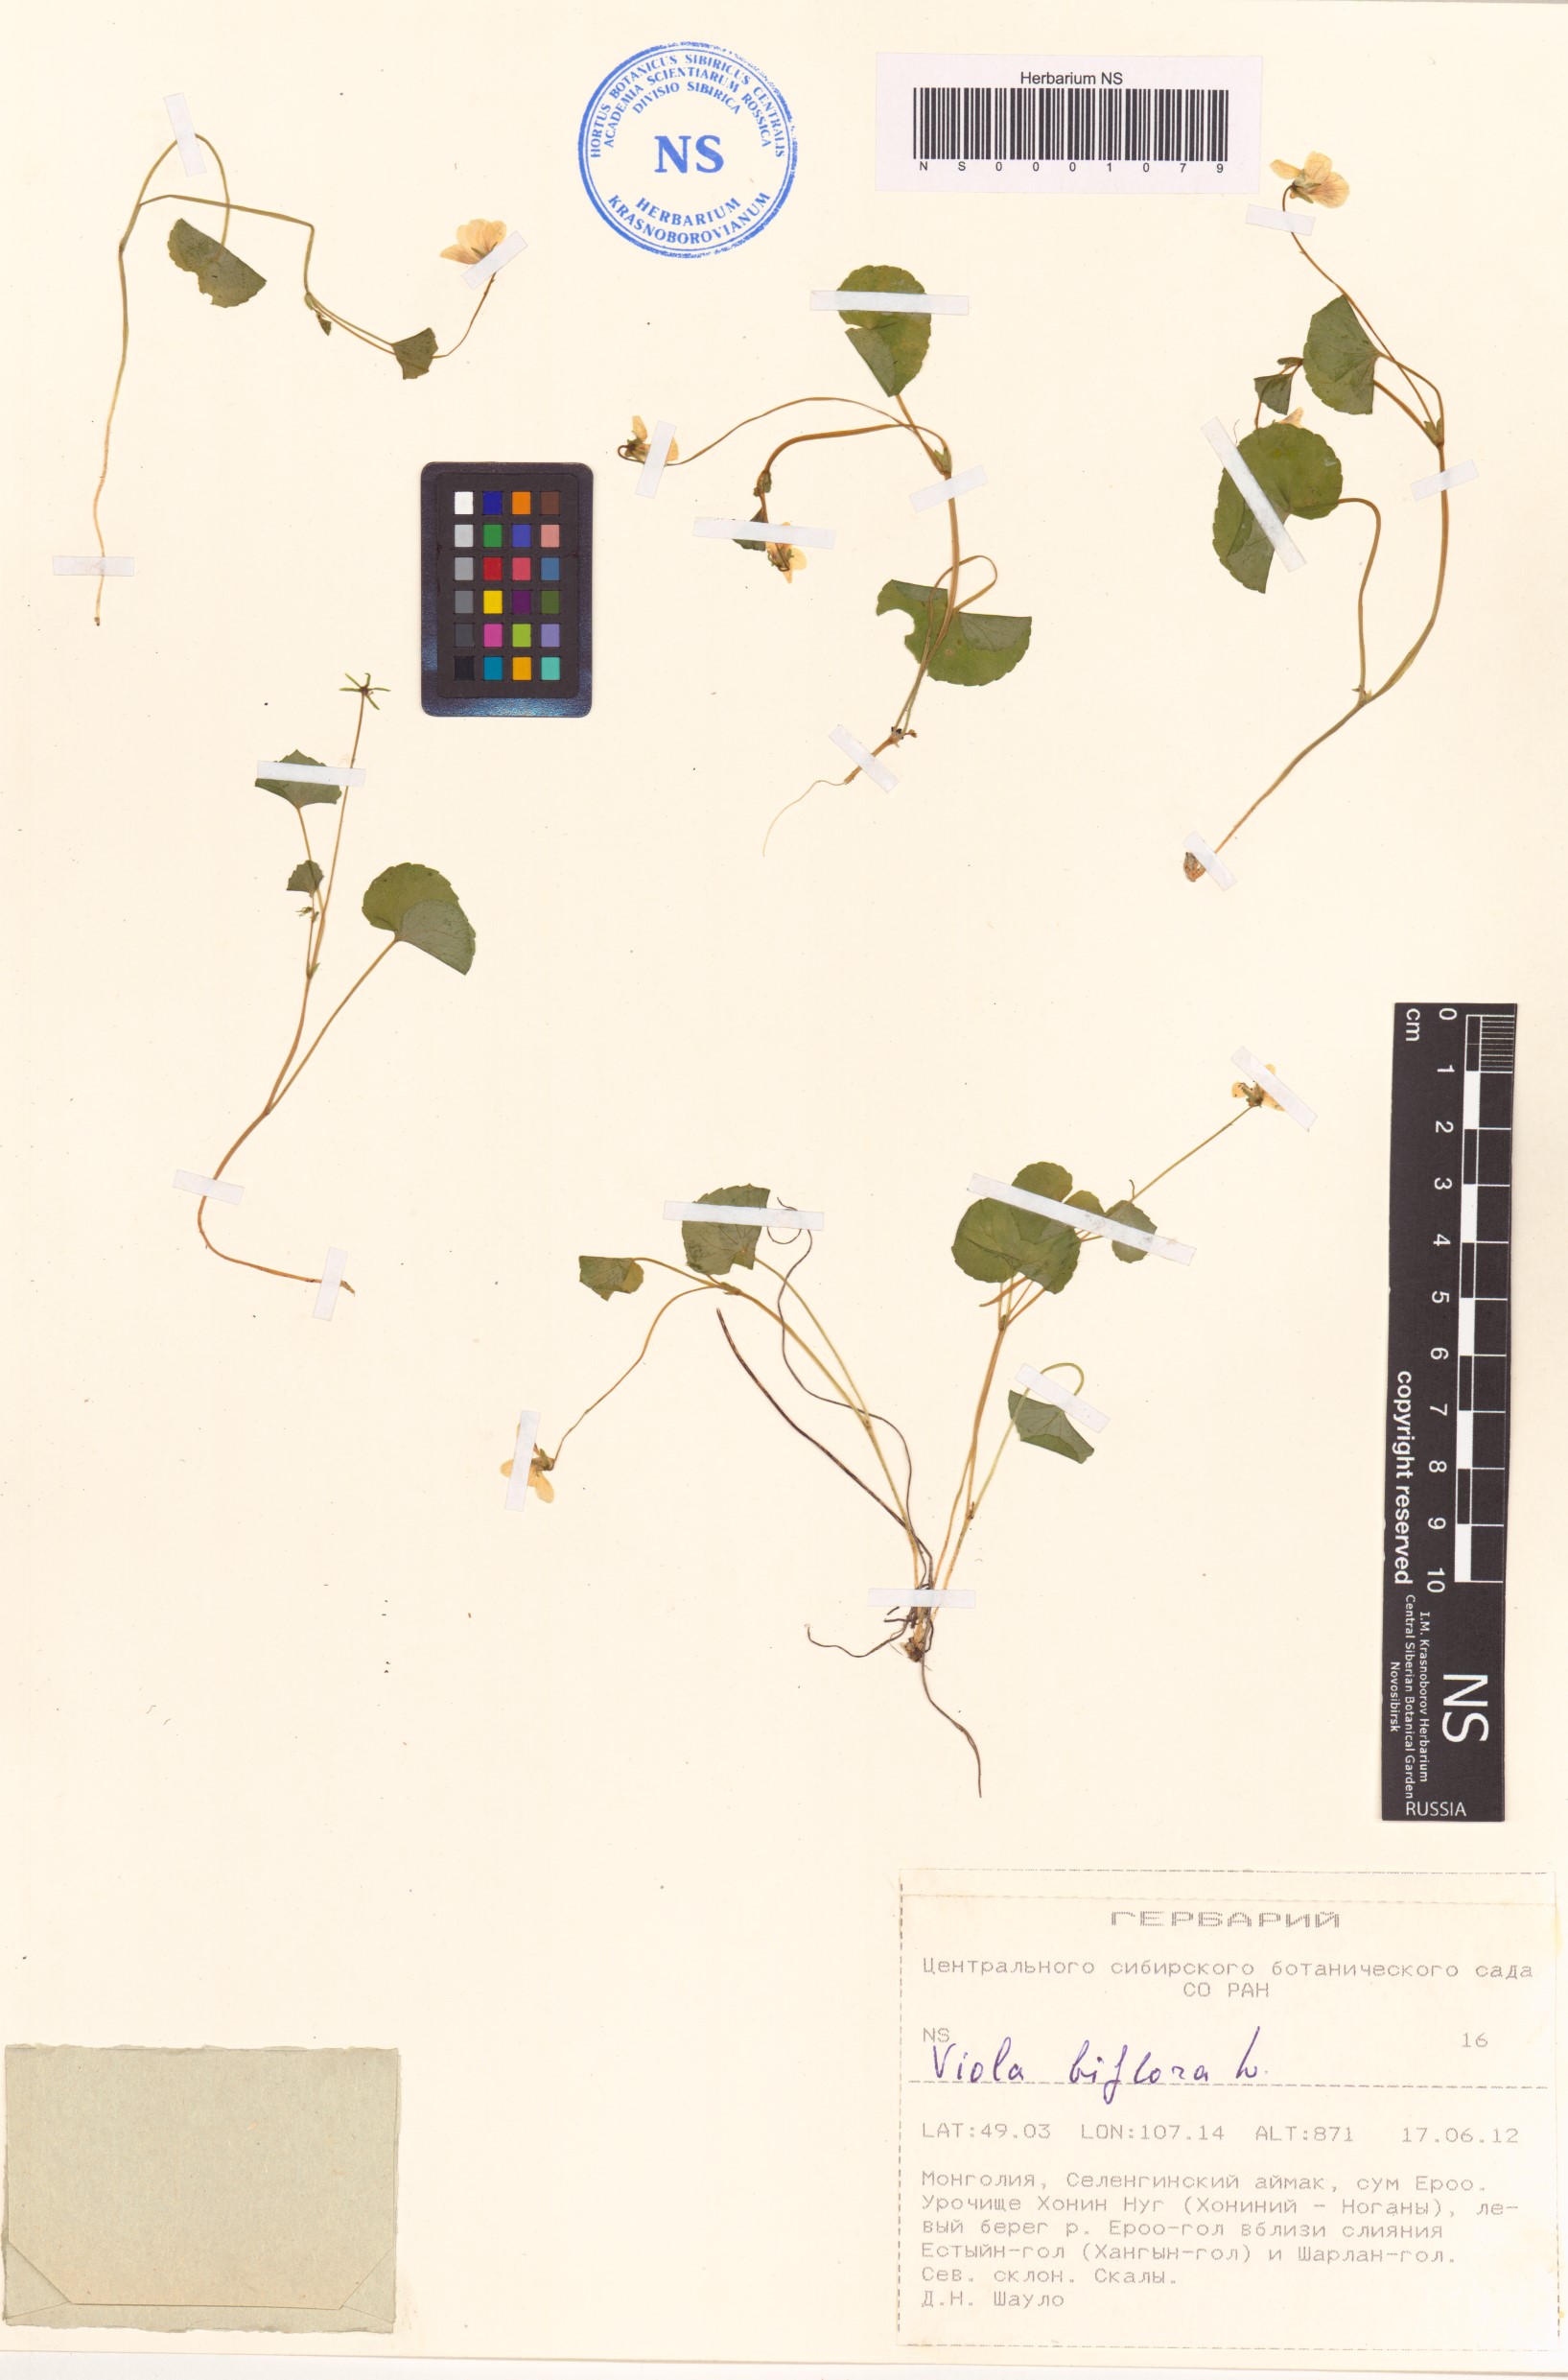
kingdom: Plantae
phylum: Tracheophyta
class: Magnoliopsida
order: Malpighiales
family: Violaceae
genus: Viola
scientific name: Viola biflora
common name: Alpine yellow violet
